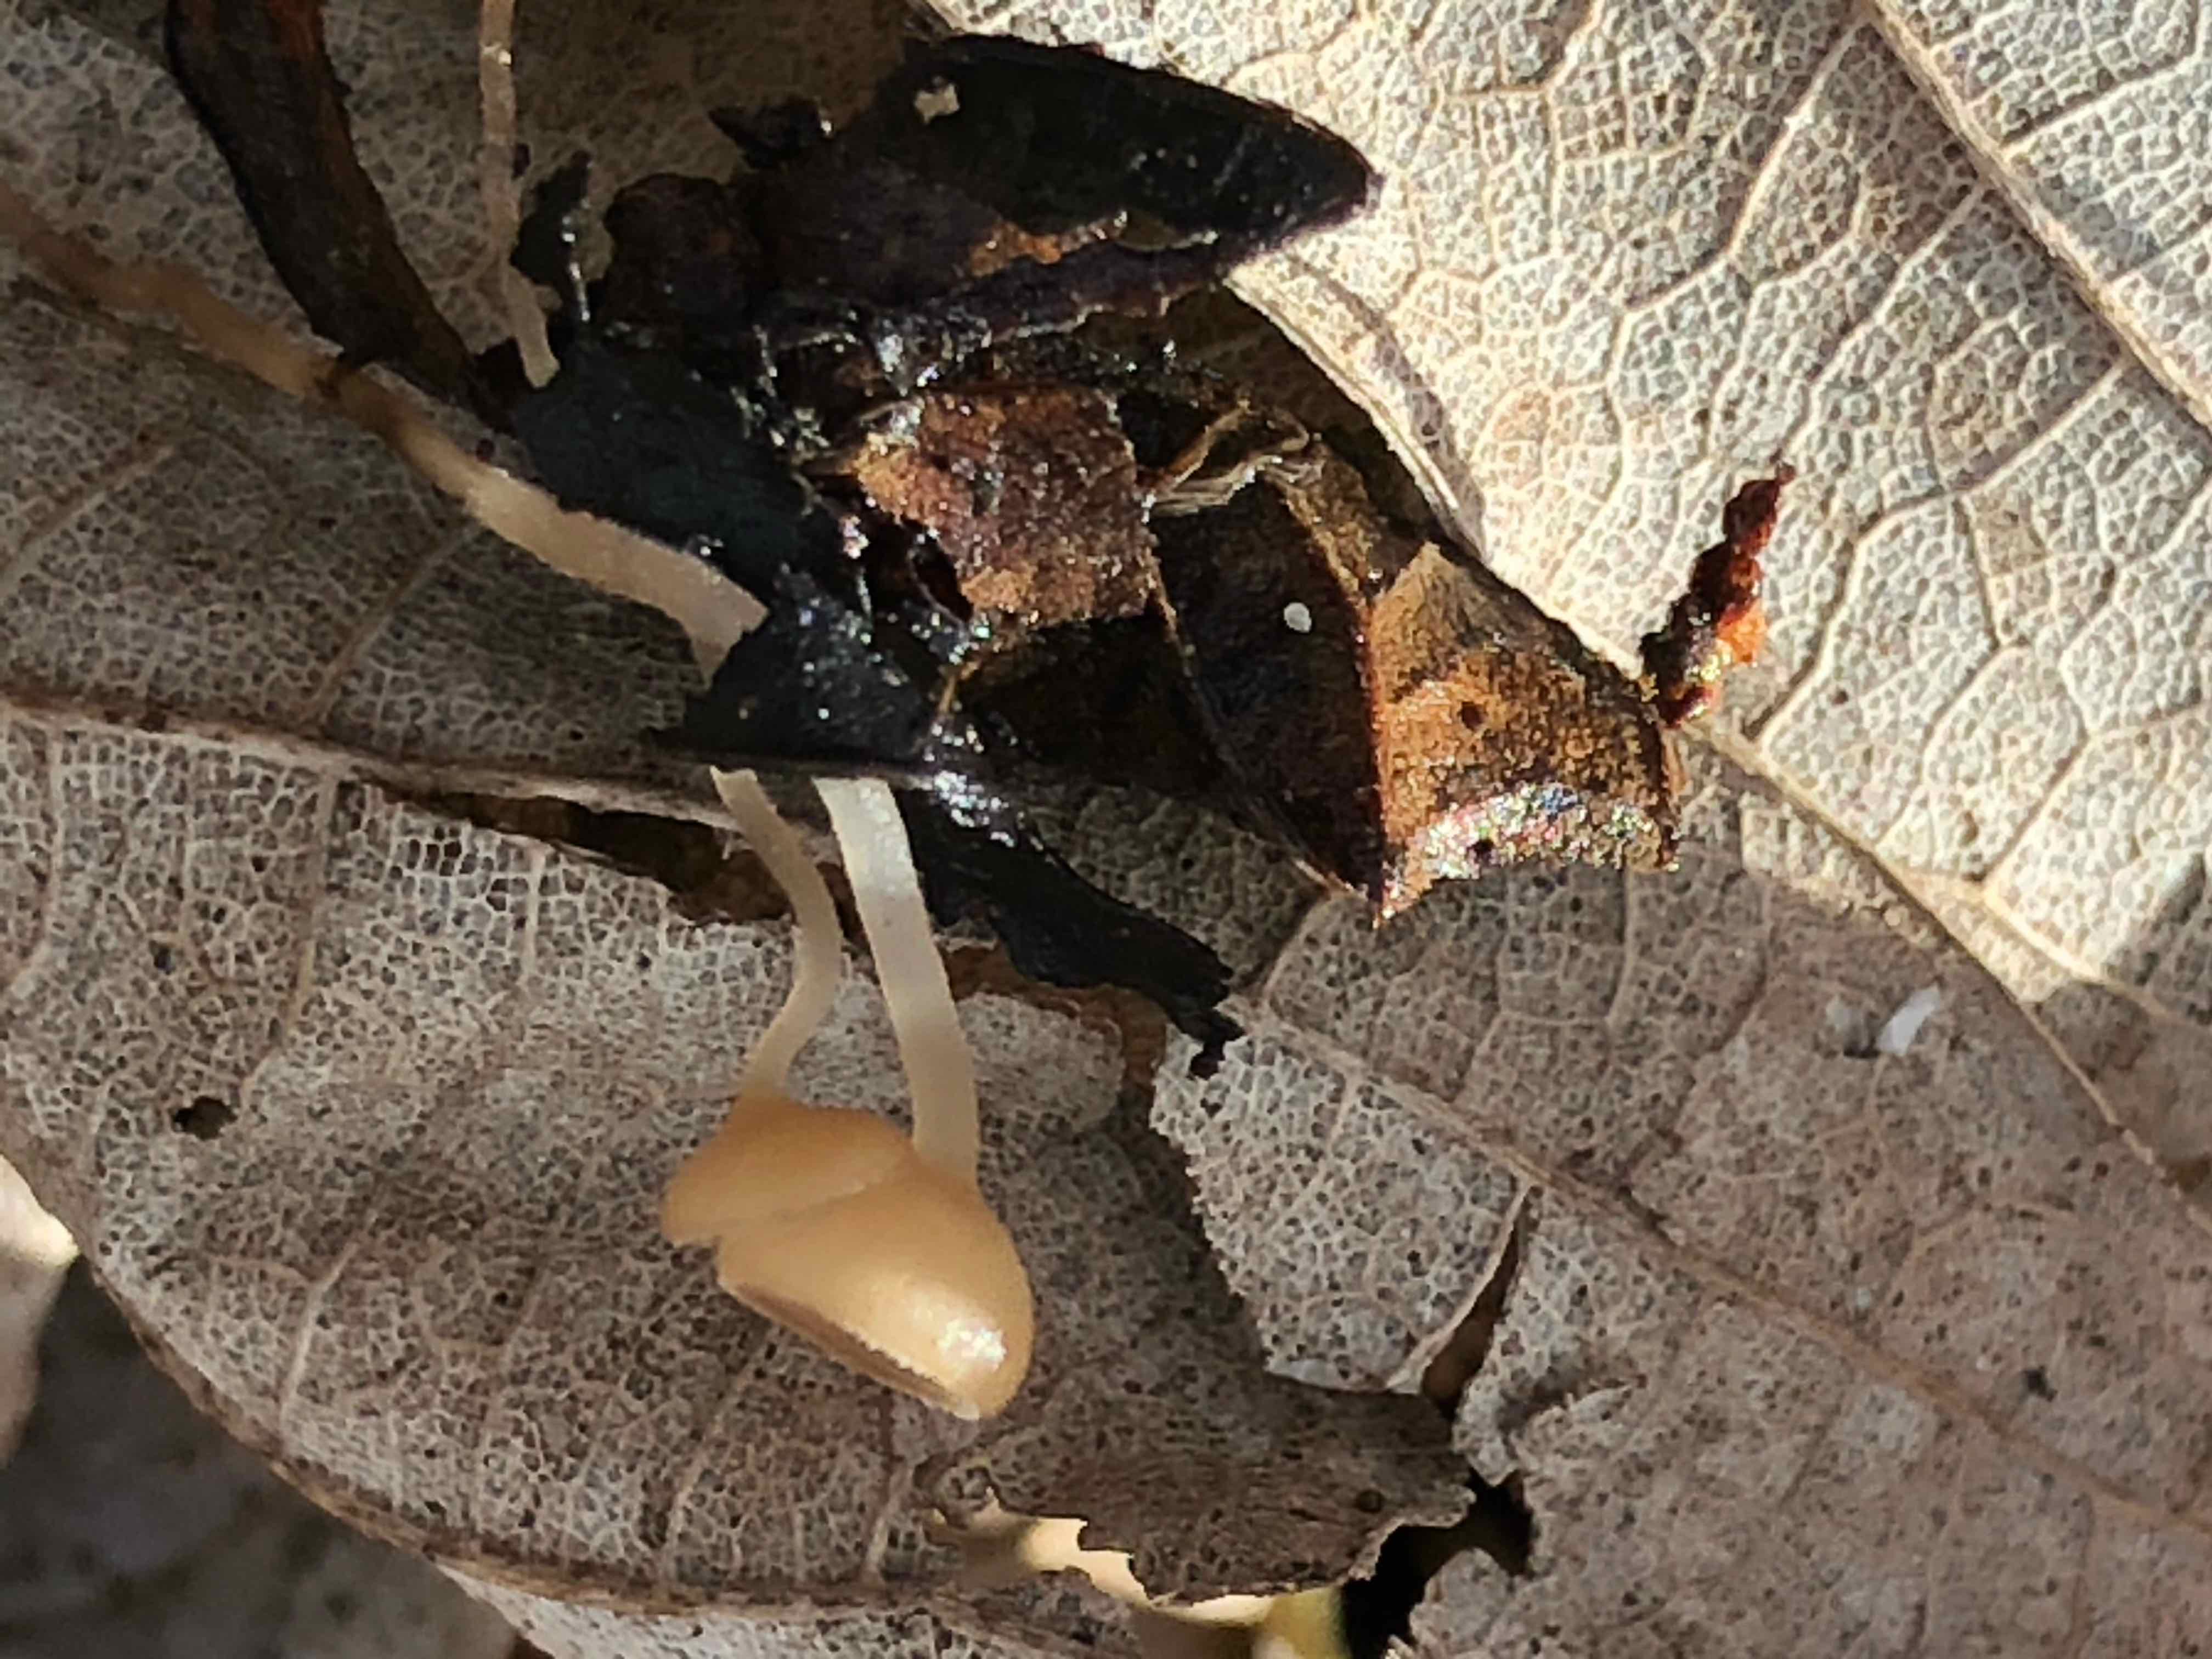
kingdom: Fungi
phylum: Ascomycota
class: Leotiomycetes
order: Helotiales
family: Sclerotiniaceae
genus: Ciboria
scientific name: Ciboria amentacea
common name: ellerakle-knoldskive
